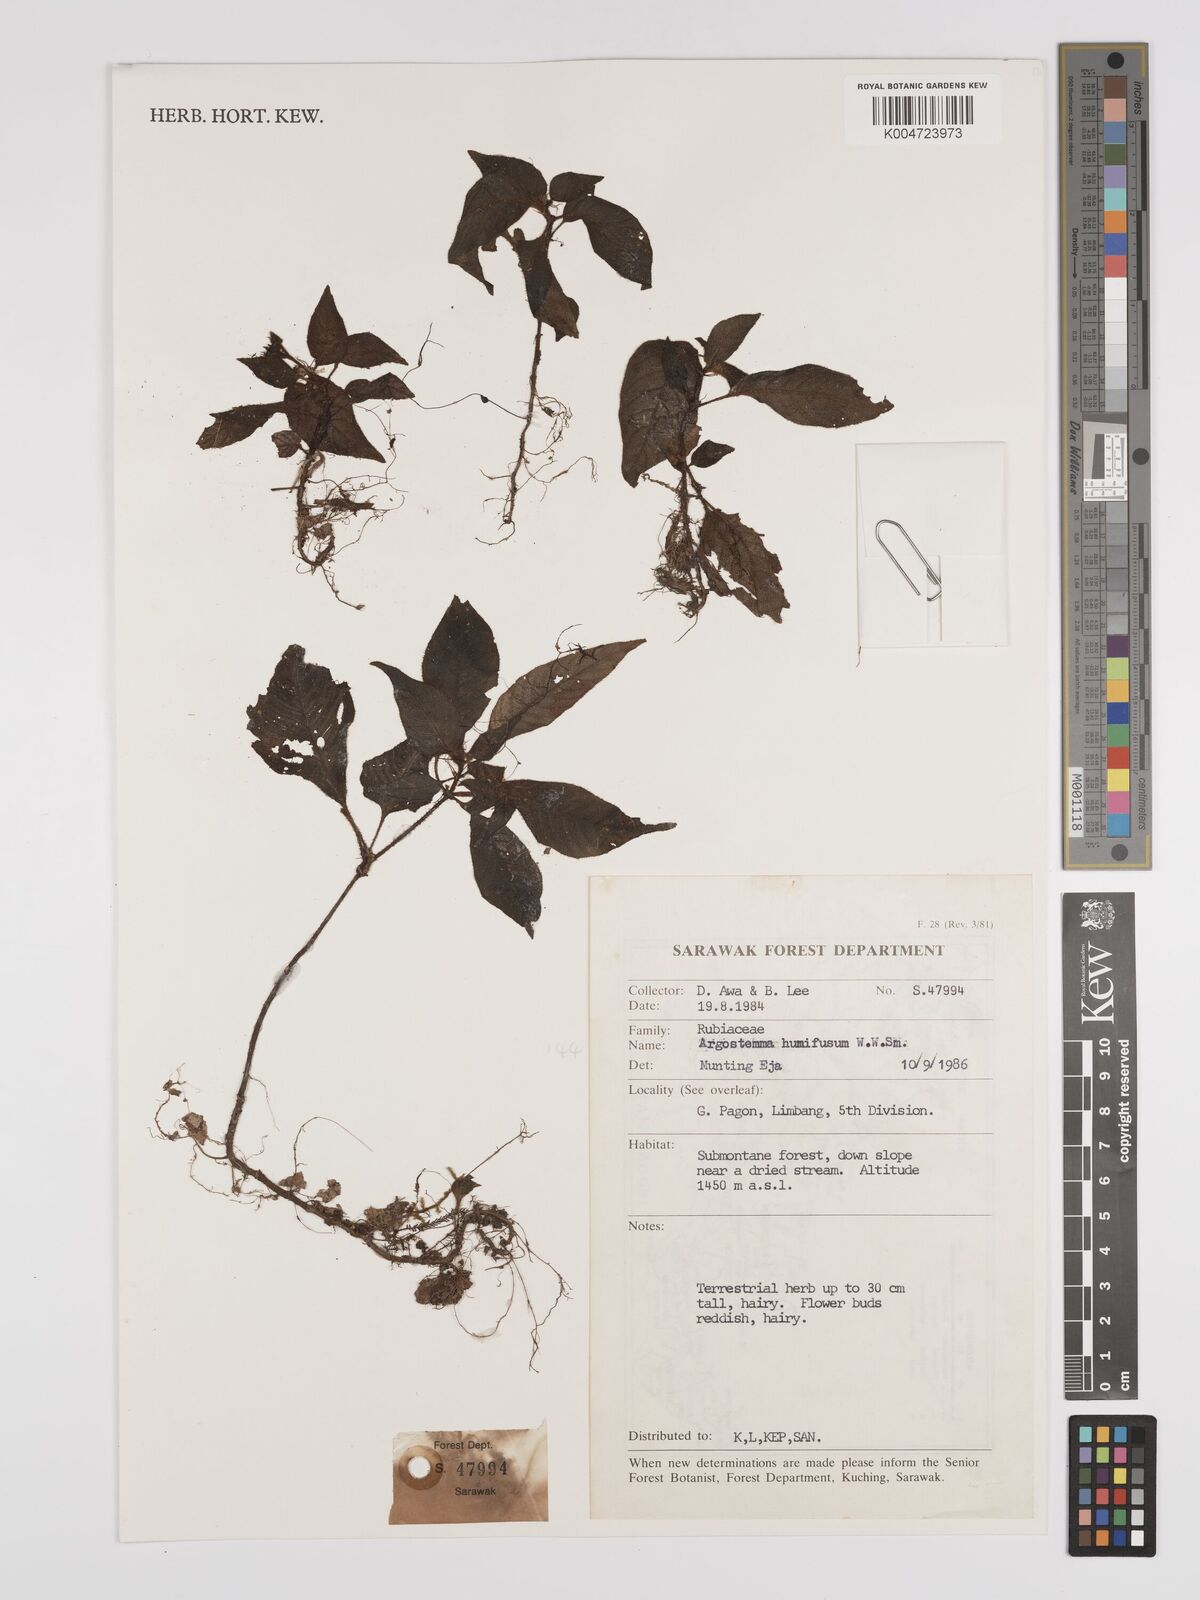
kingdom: Plantae
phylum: Tracheophyta
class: Magnoliopsida
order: Gentianales
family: Rubiaceae
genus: Argostemma
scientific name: Argostemma humifusum
